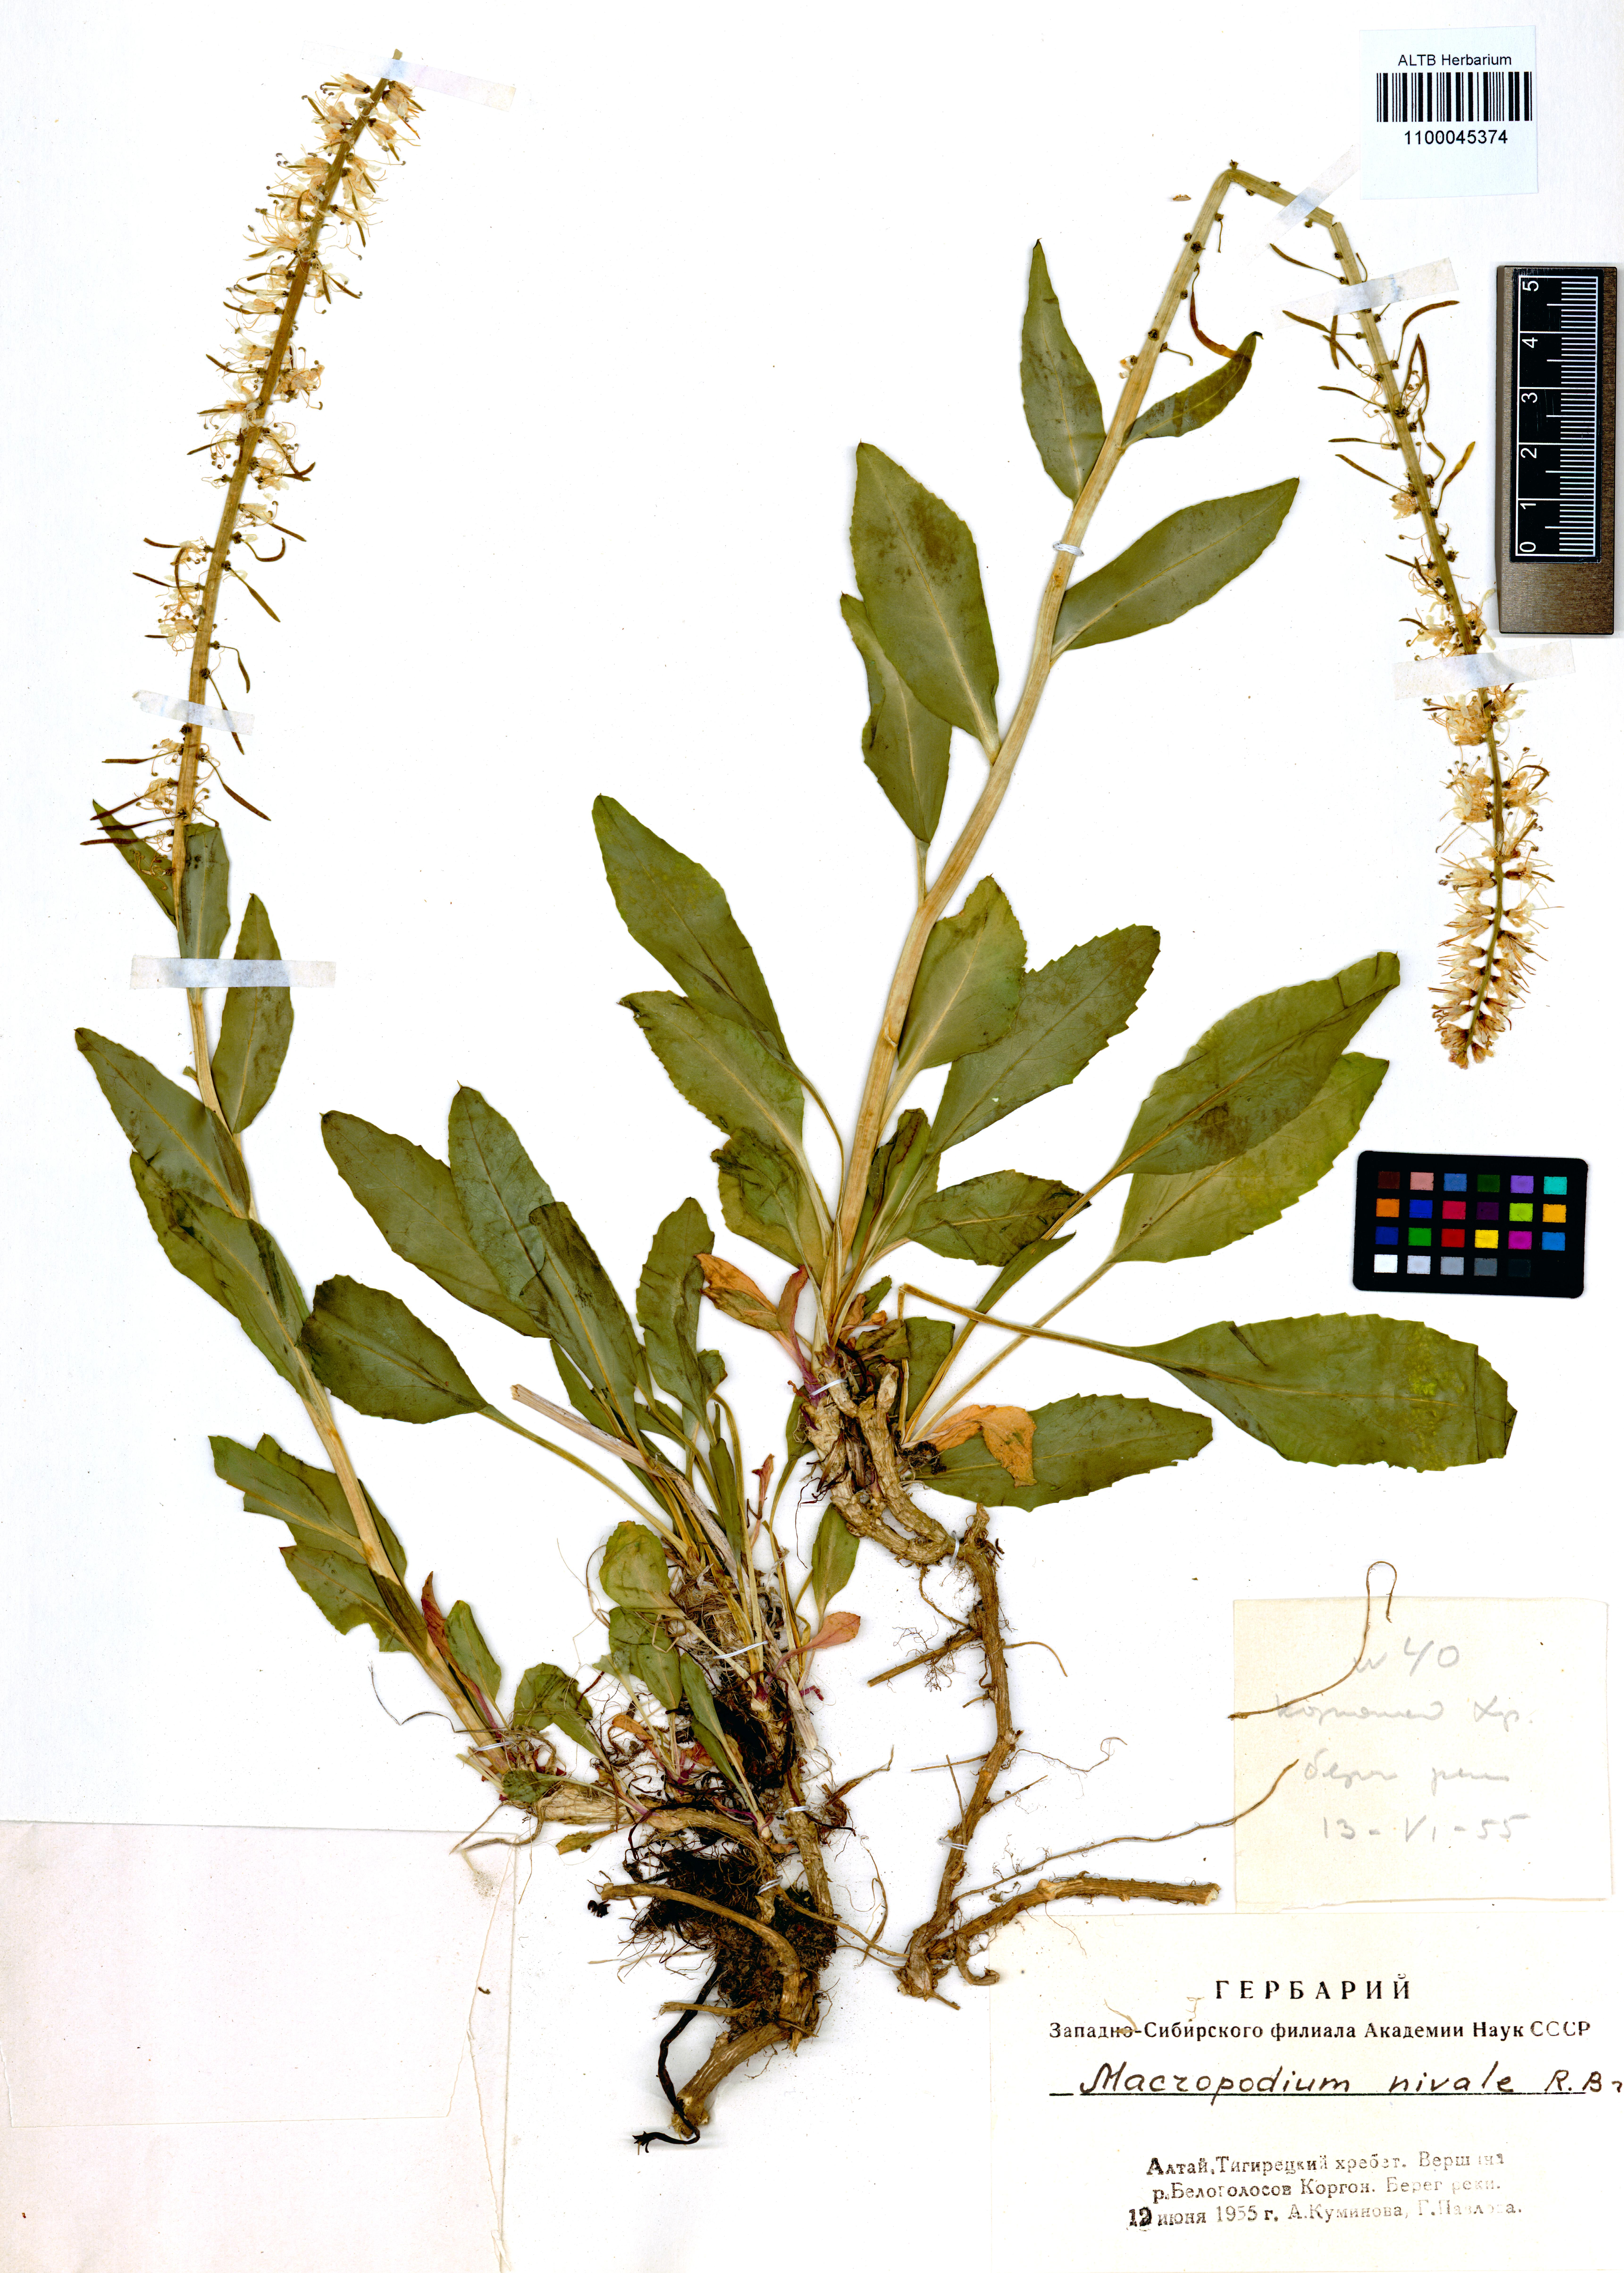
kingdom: Plantae
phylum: Tracheophyta
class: Magnoliopsida
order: Brassicales
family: Brassicaceae
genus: Macropodium
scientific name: Macropodium nivale
